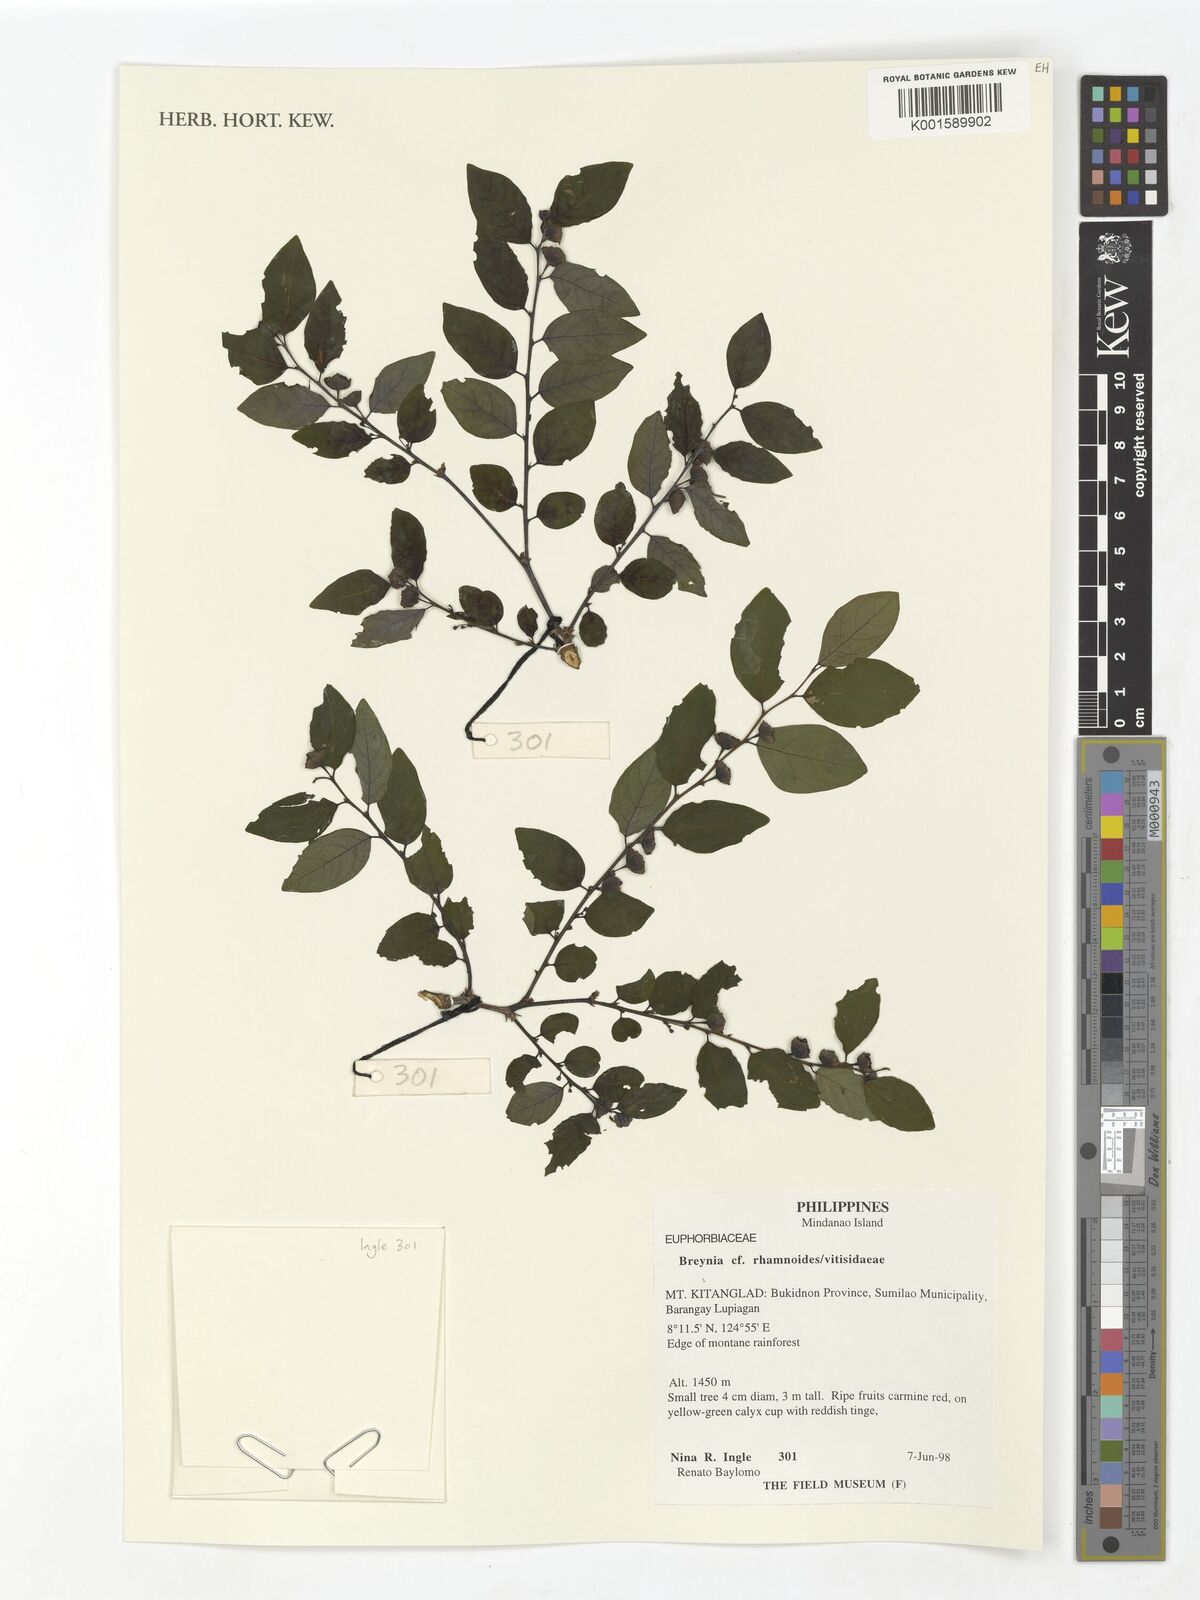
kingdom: Plantae
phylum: Tracheophyta
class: Magnoliopsida
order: Malpighiales
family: Phyllanthaceae
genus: Breynia
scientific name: Breynia vitis-idaea
